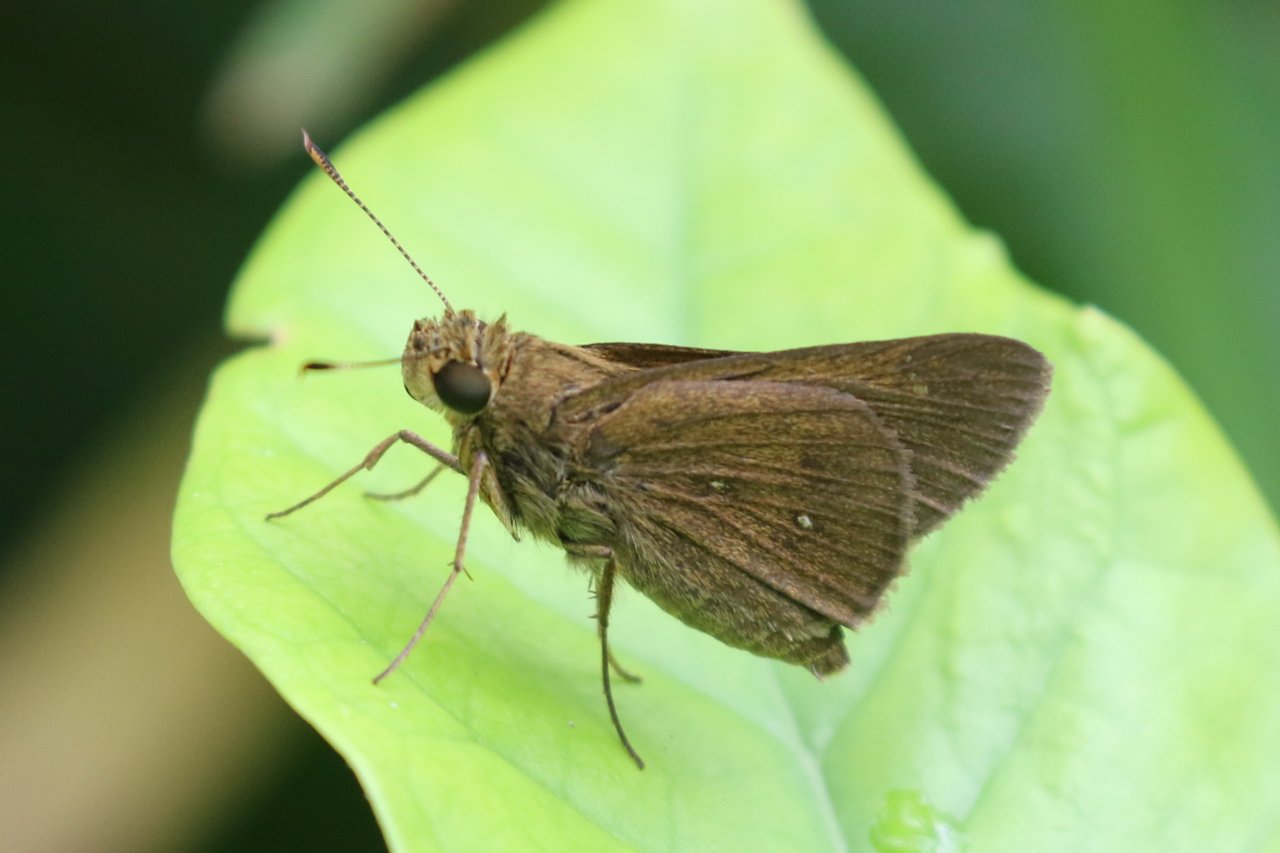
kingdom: Animalia
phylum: Arthropoda
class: Insecta
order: Lepidoptera
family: Hesperiidae
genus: Decinea
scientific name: Decinea percosius
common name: Double-dotted Skipper
